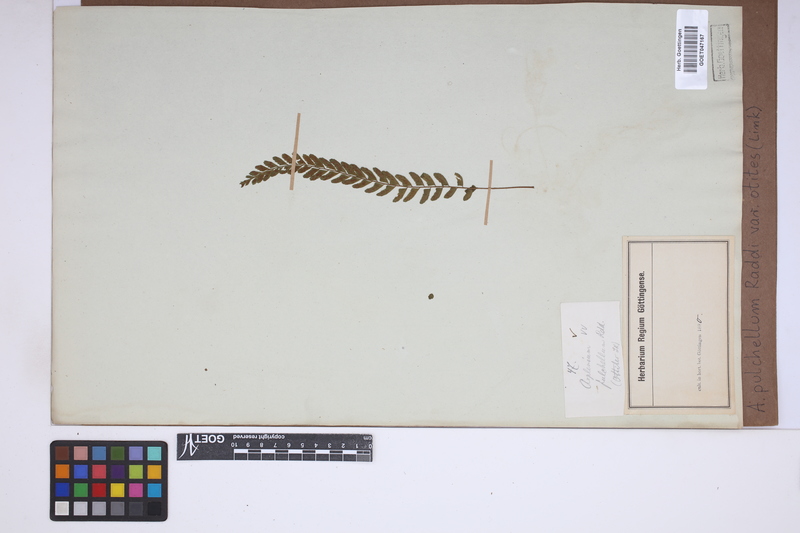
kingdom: Plantae
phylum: Tracheophyta
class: Polypodiopsida
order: Polypodiales
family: Aspleniaceae
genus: Asplenium
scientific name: Asplenium otites
